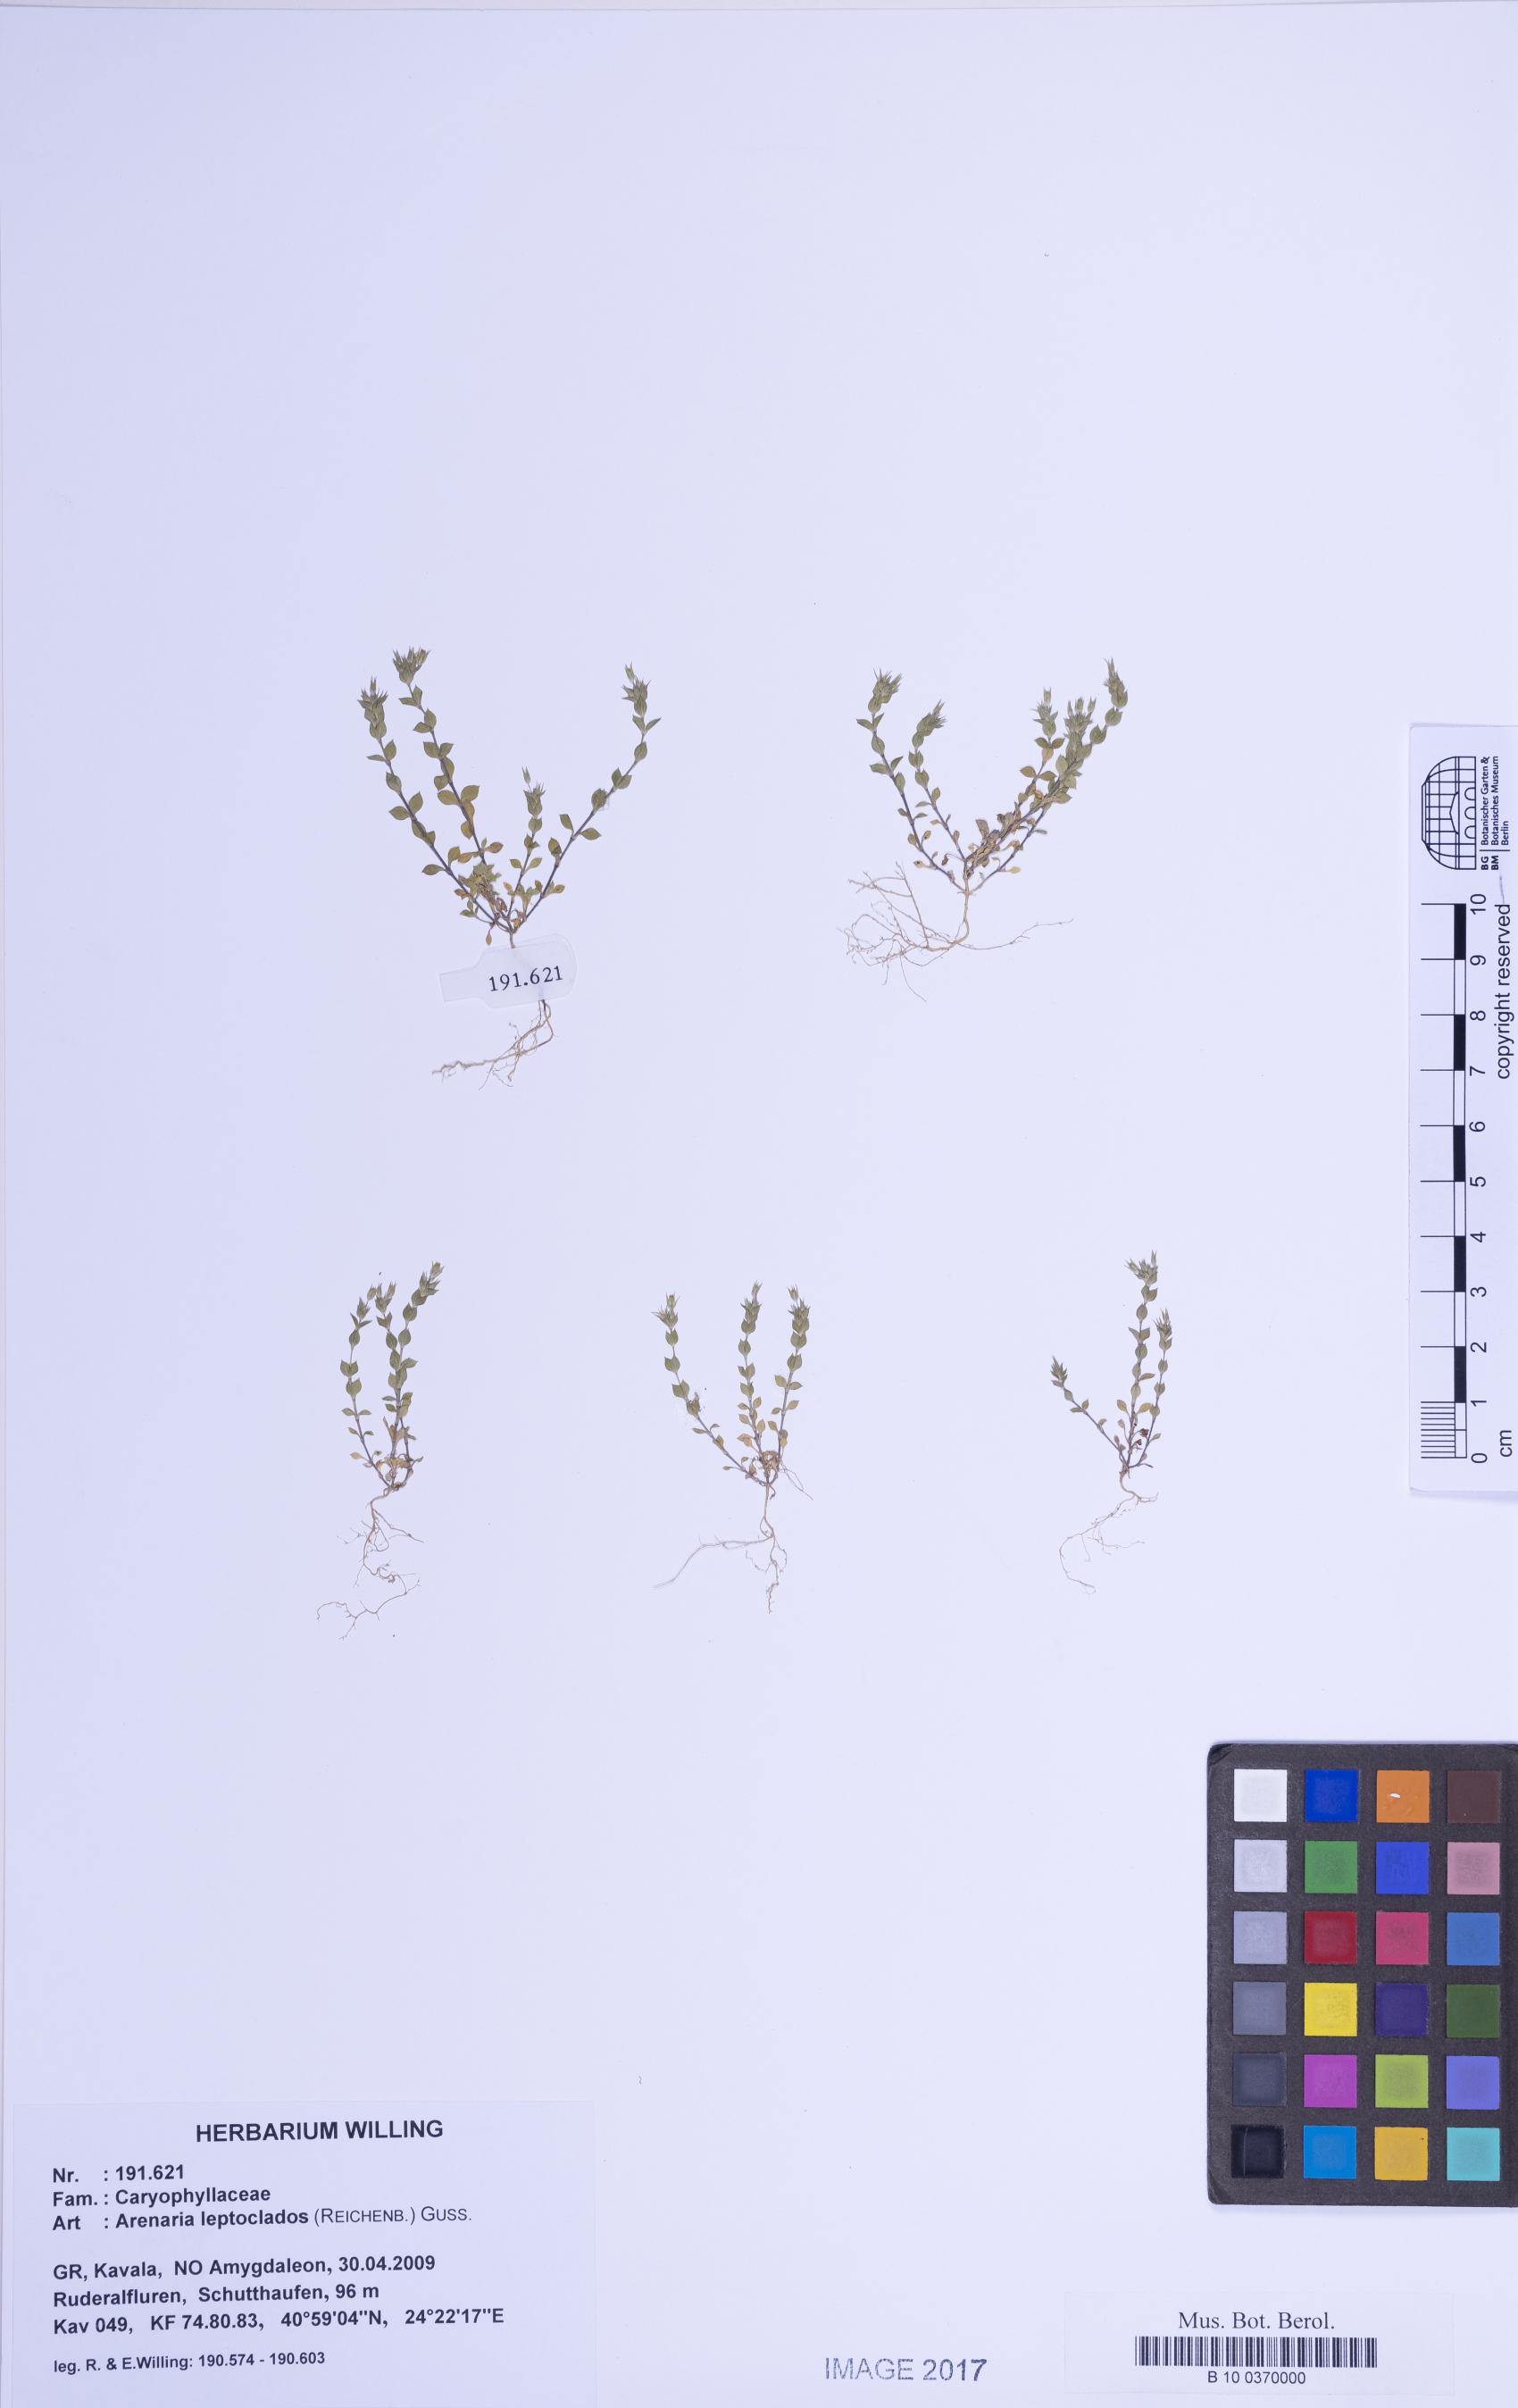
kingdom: Plantae
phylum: Tracheophyta
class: Magnoliopsida
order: Caryophyllales
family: Caryophyllaceae
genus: Arenaria
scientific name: Arenaria leptoclados
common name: Thyme-leaved sandwort
